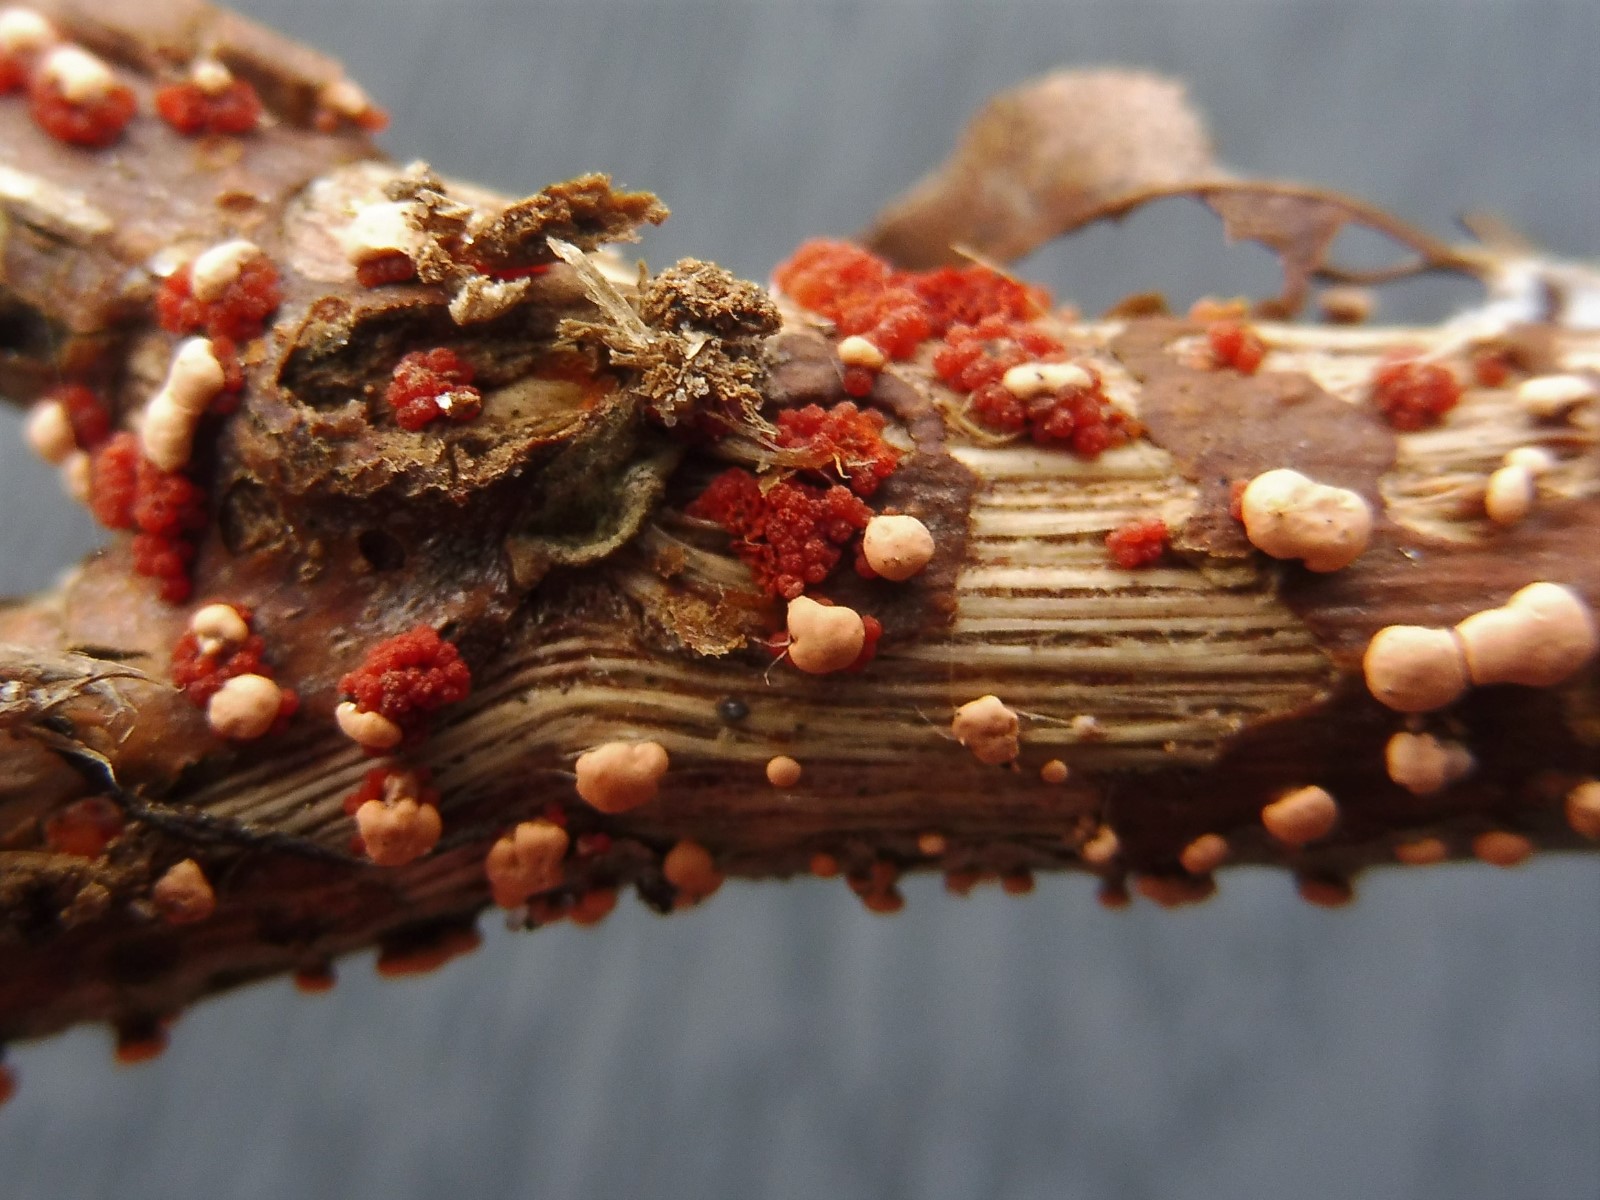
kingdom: Fungi
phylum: Ascomycota
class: Sordariomycetes
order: Hypocreales
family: Nectriaceae
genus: Nectria
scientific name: Nectria cinnabarina
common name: almindelig cinnobersvamp
